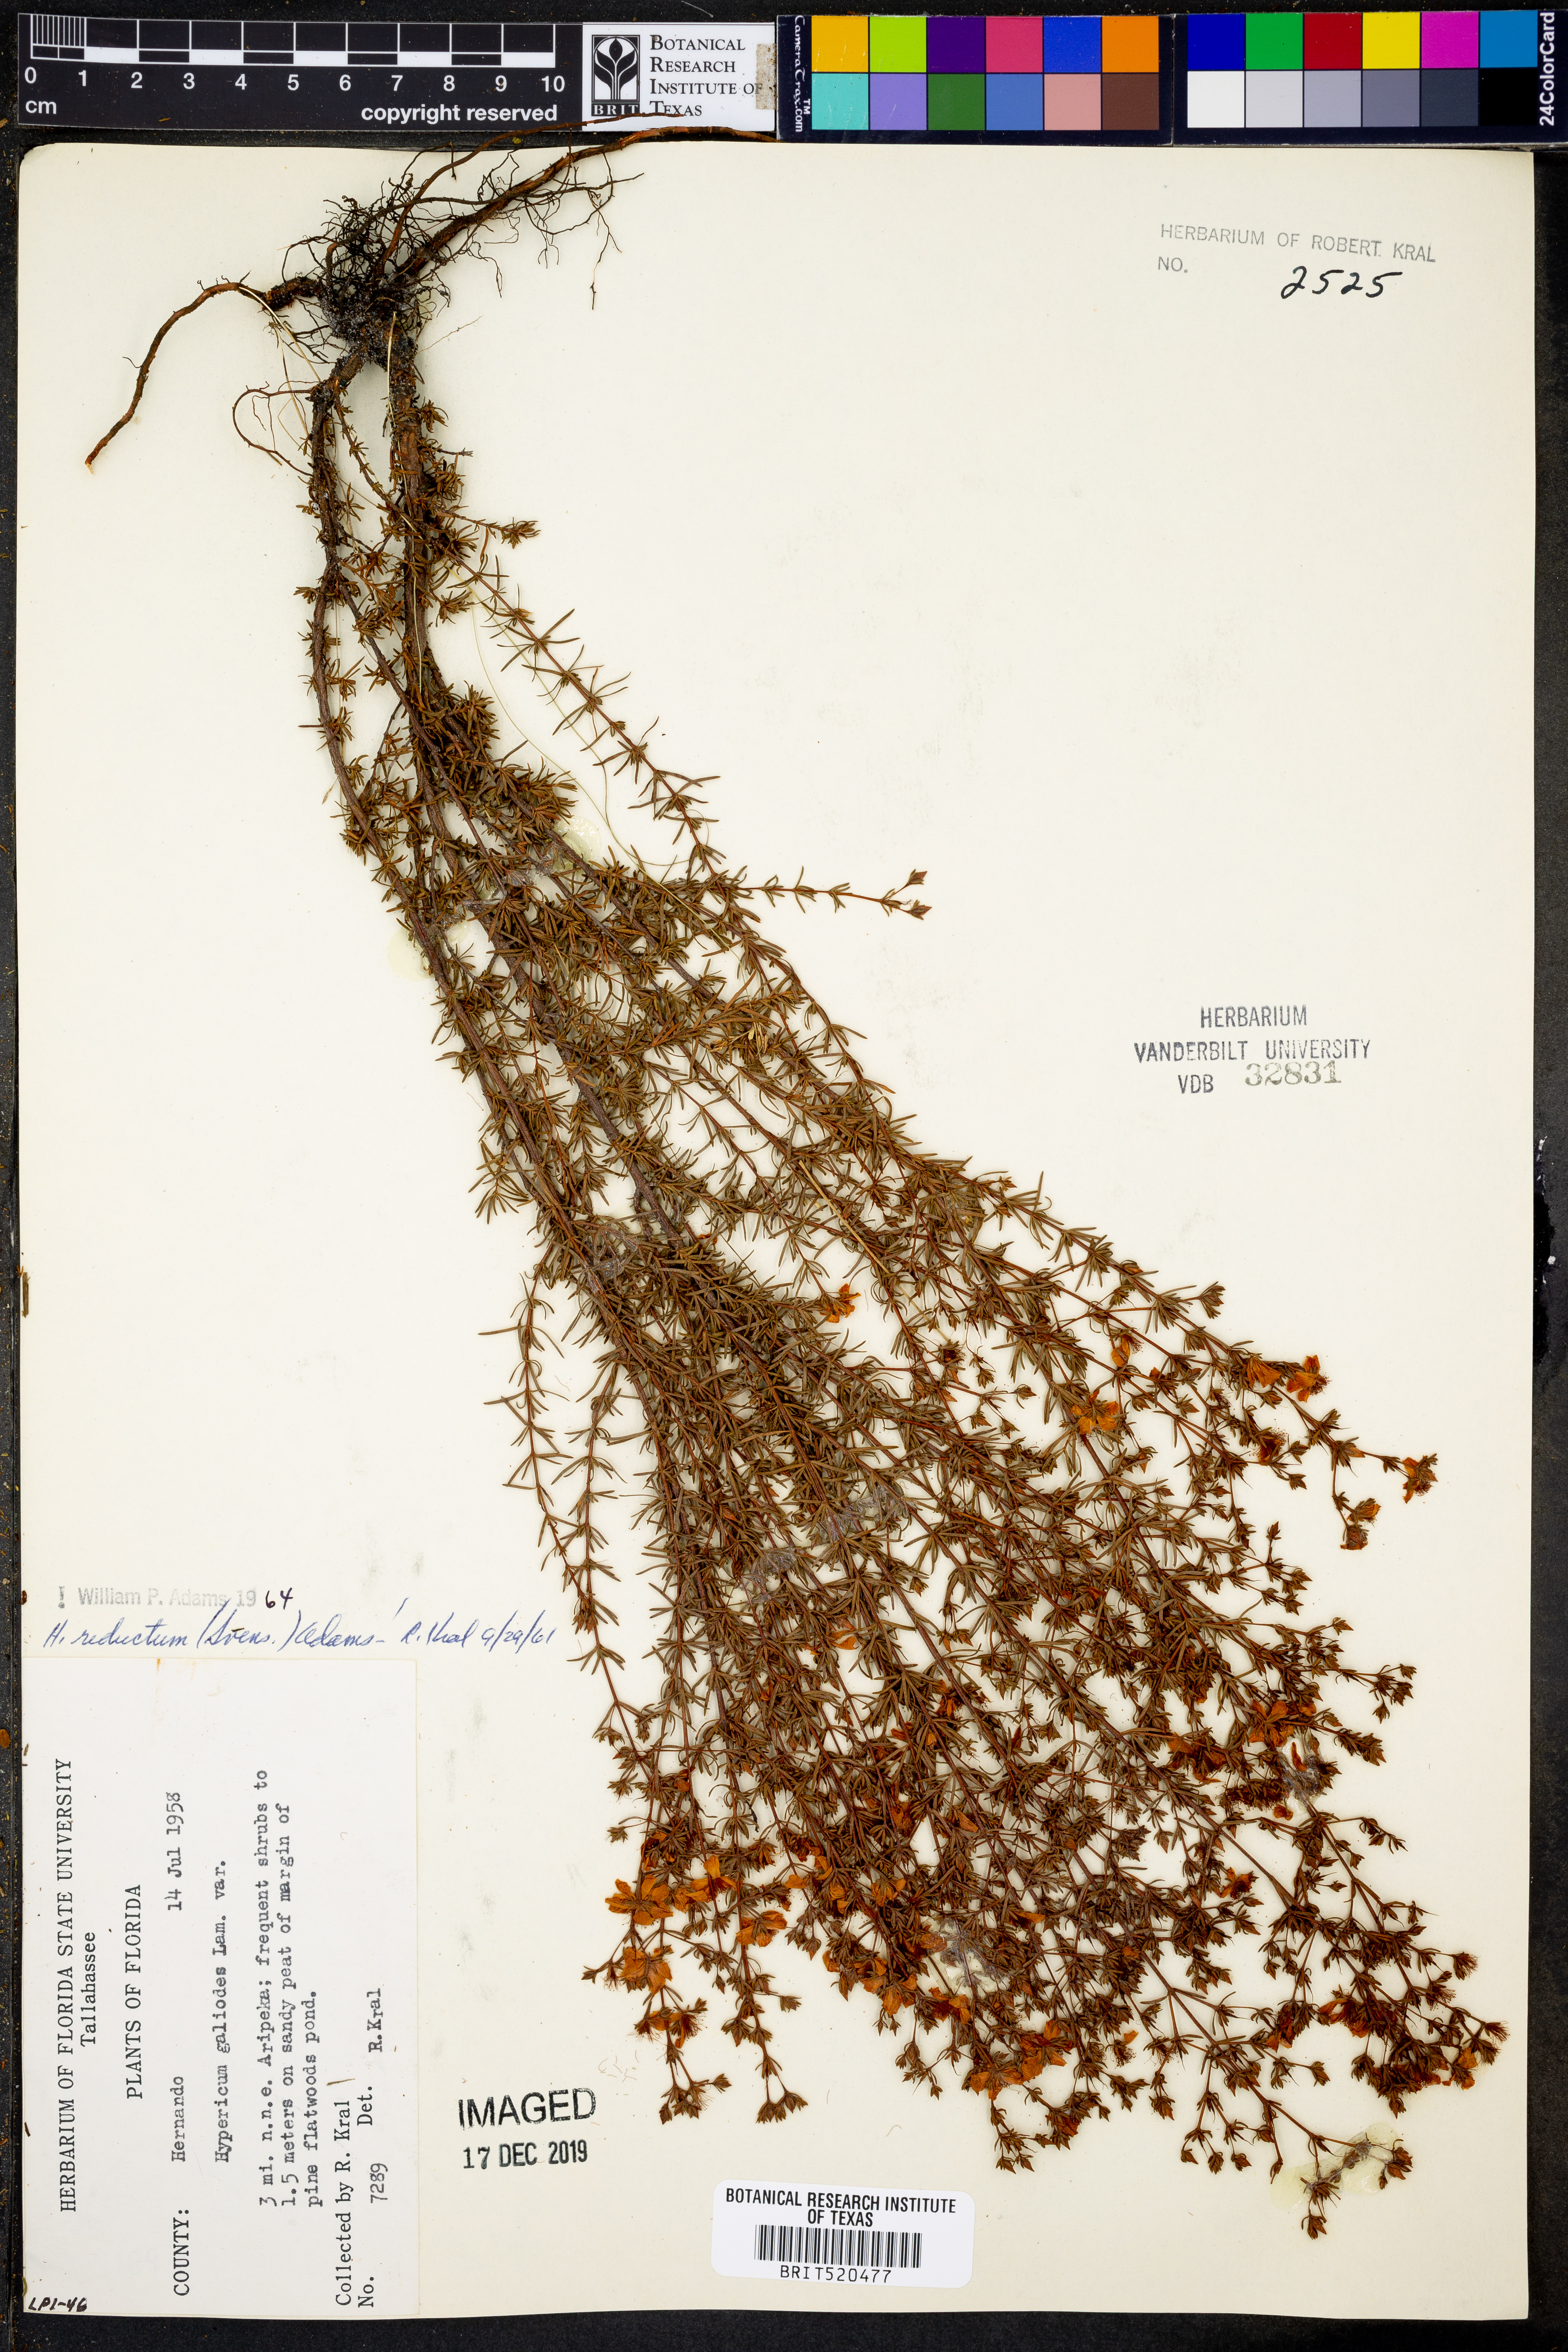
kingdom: Plantae
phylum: Tracheophyta
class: Magnoliopsida
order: Malpighiales
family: Hypericaceae
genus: Hypericum
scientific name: Hypericum tenuifolium
